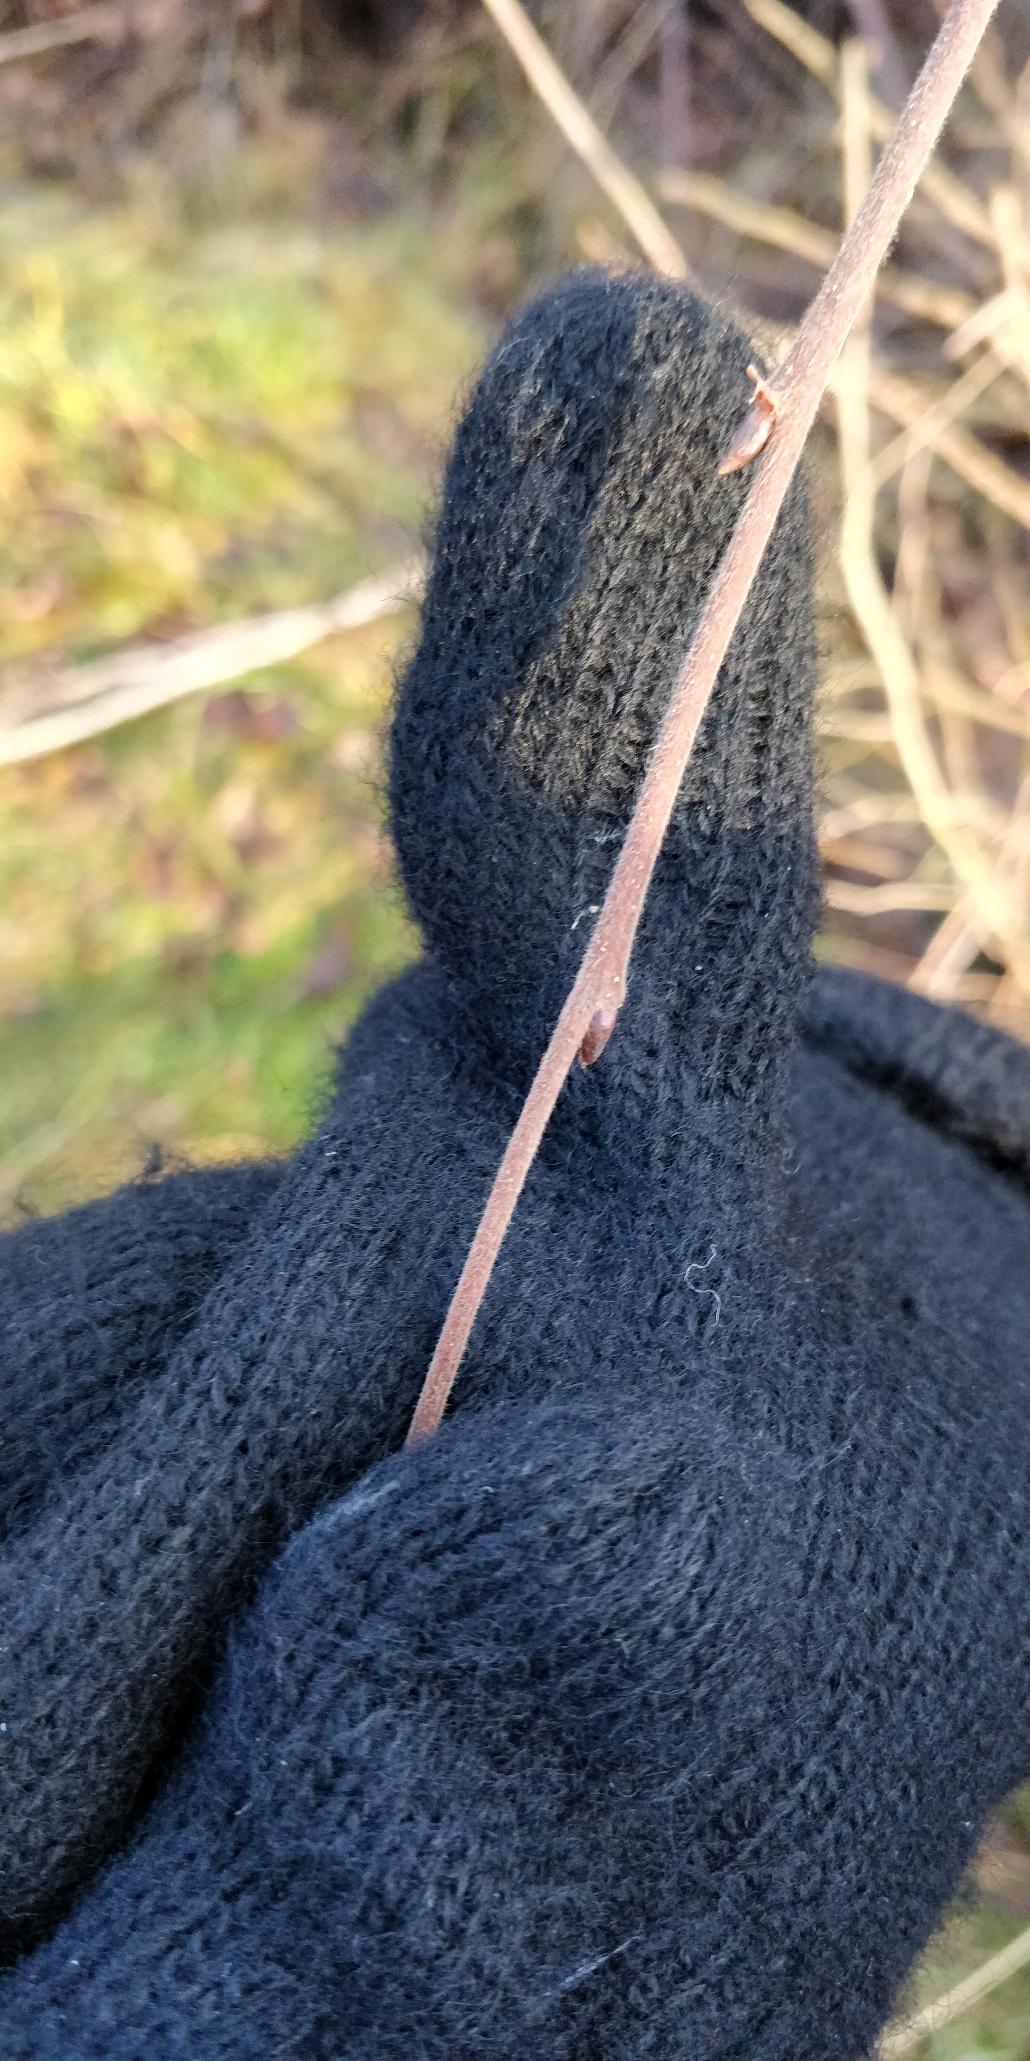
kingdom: Plantae
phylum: Tracheophyta
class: Magnoliopsida
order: Fagales
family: Betulaceae
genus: Betula
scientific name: Betula pubescens
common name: Dun-birk
